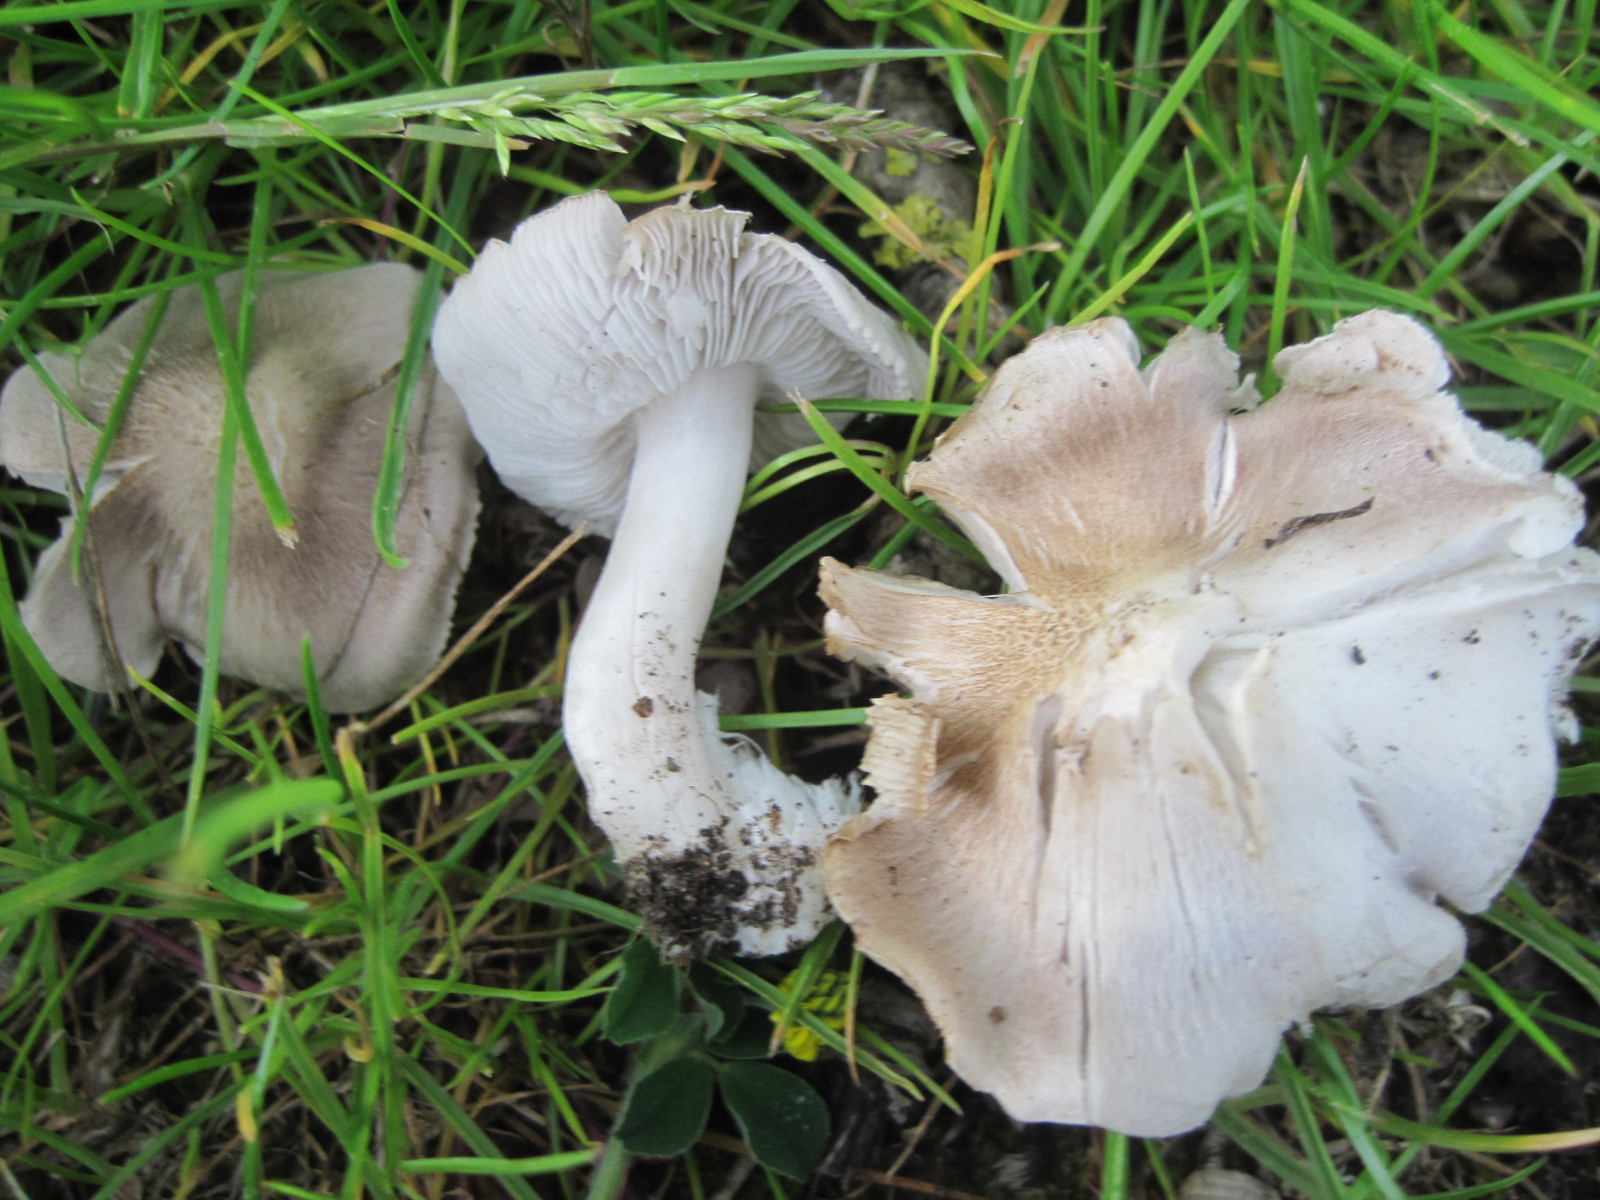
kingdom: Fungi
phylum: Basidiomycota
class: Agaricomycetes
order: Agaricales
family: Tricholomataceae
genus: Tricholoma
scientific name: Tricholoma argyraceum
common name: spids ridderhat
